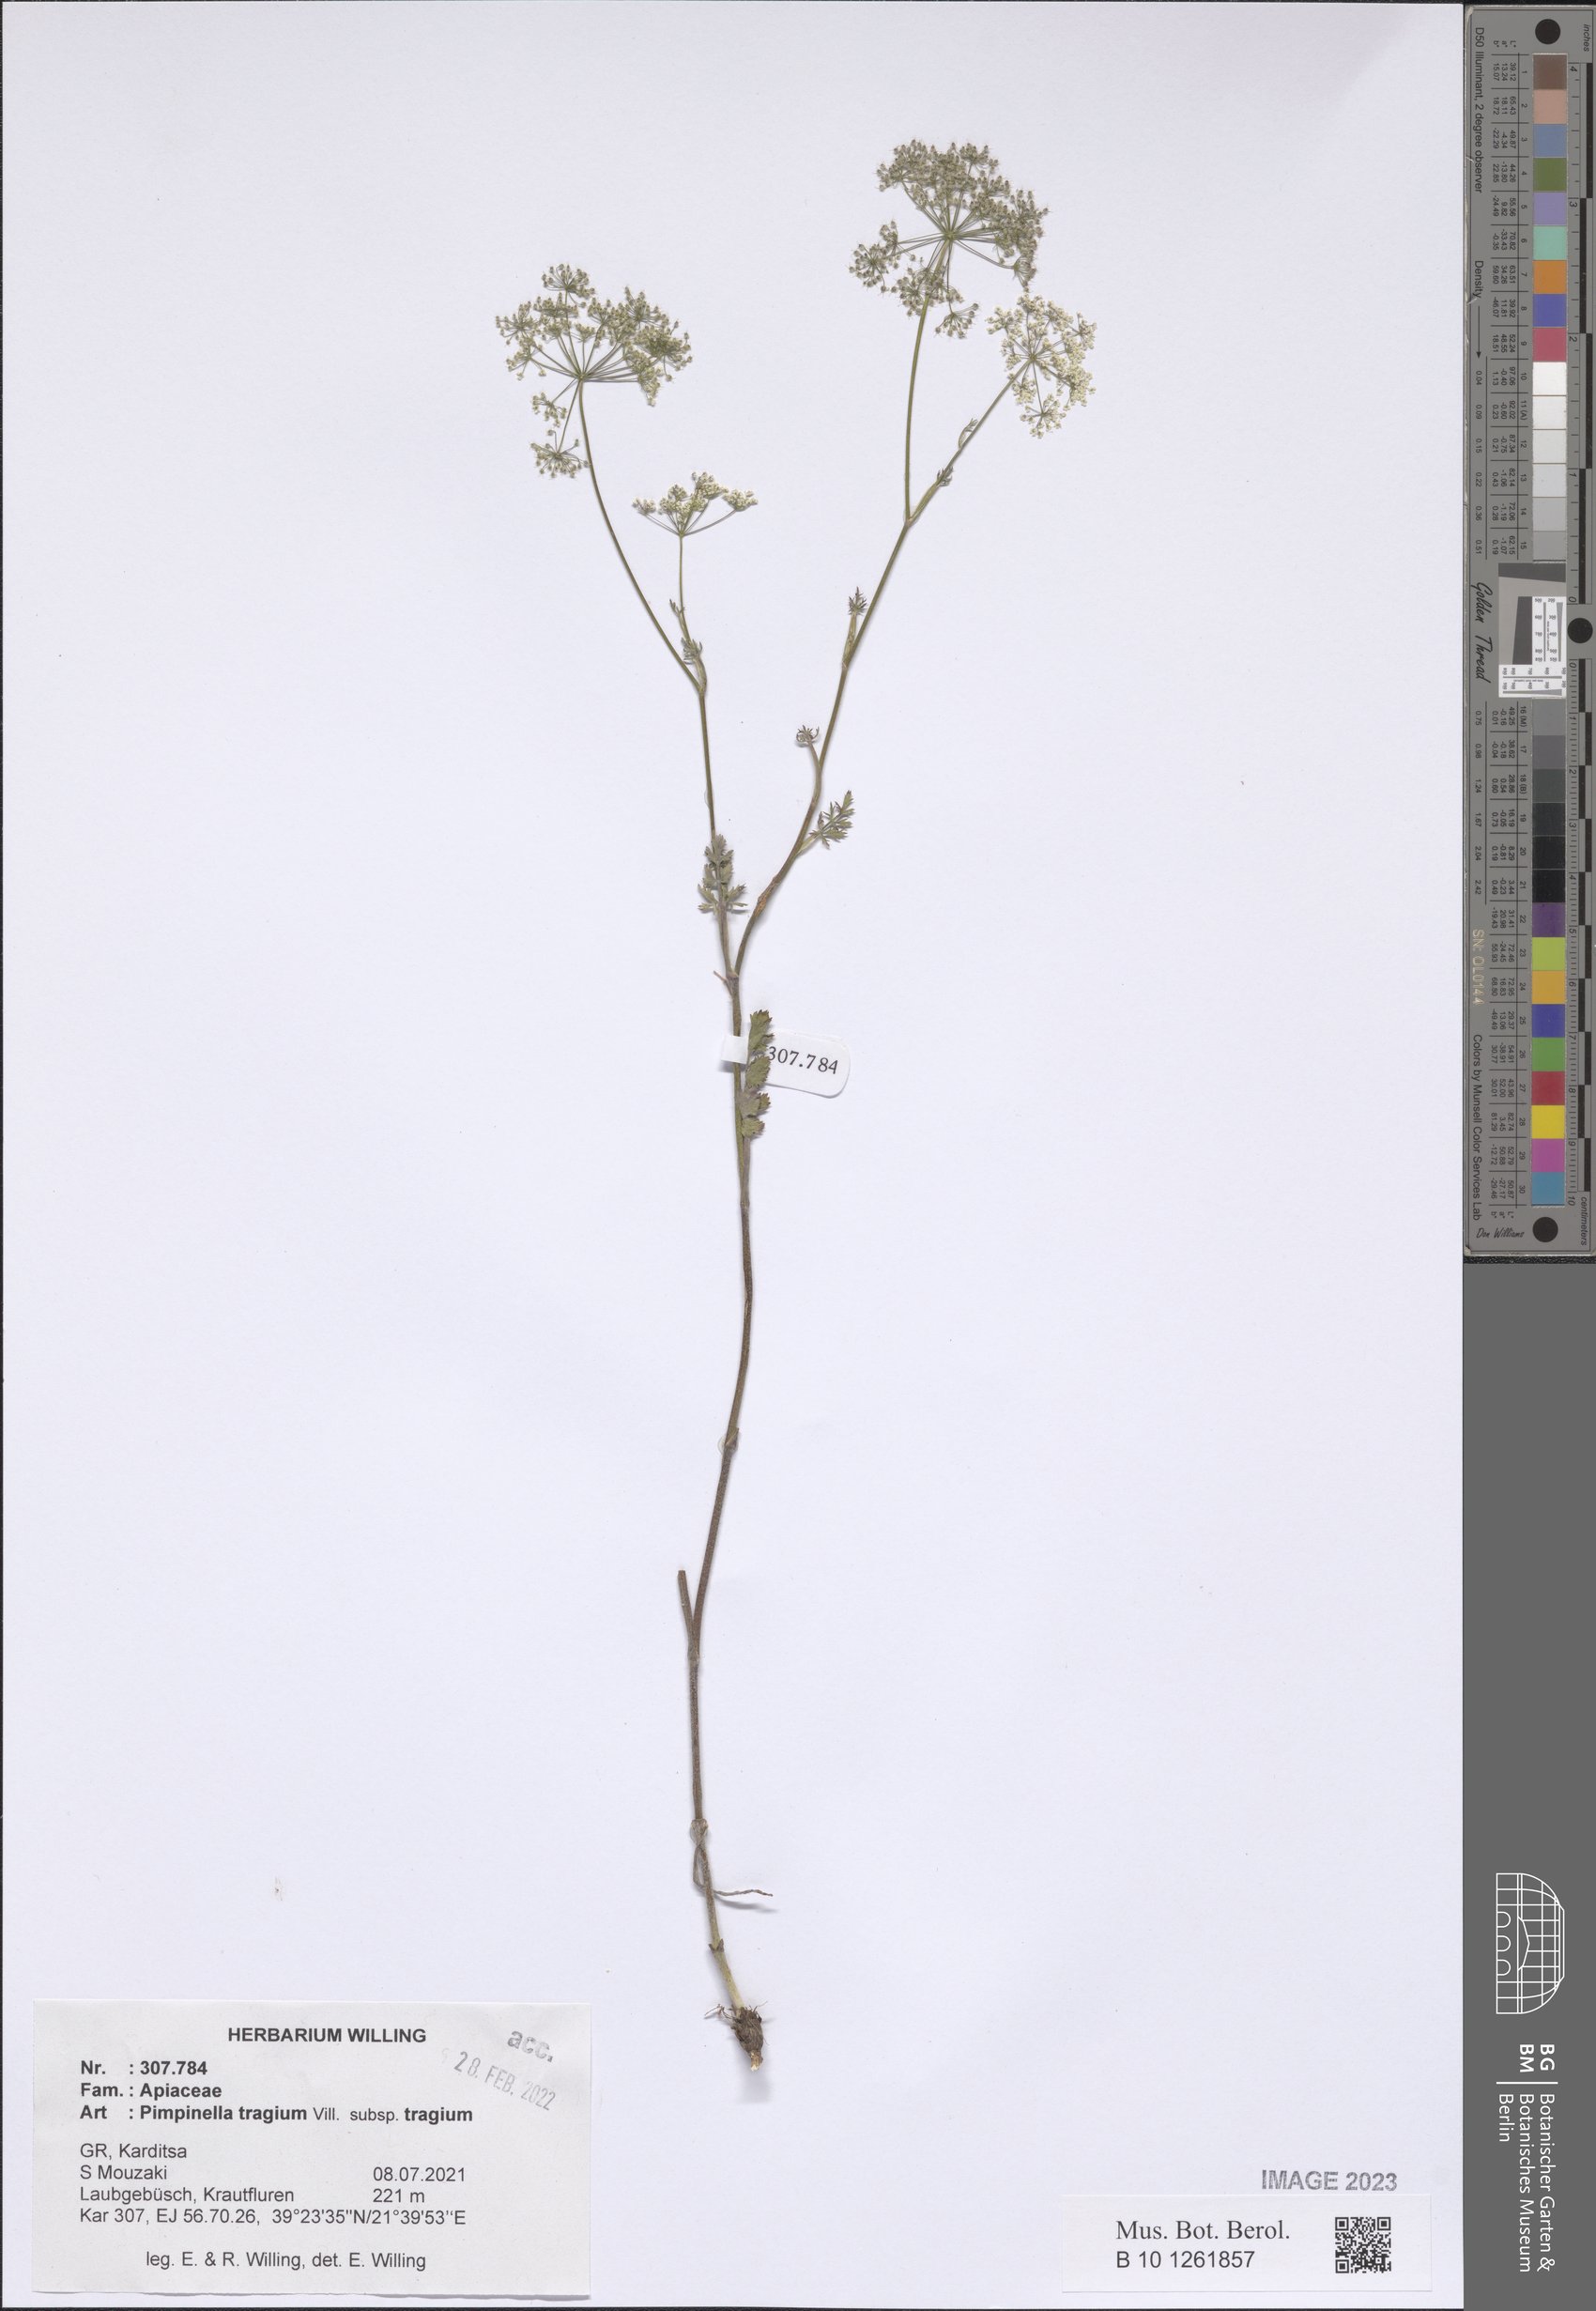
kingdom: Plantae
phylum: Tracheophyta
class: Magnoliopsida
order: Apiales
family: Apiaceae
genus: Pimpinella
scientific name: Pimpinella tragium
